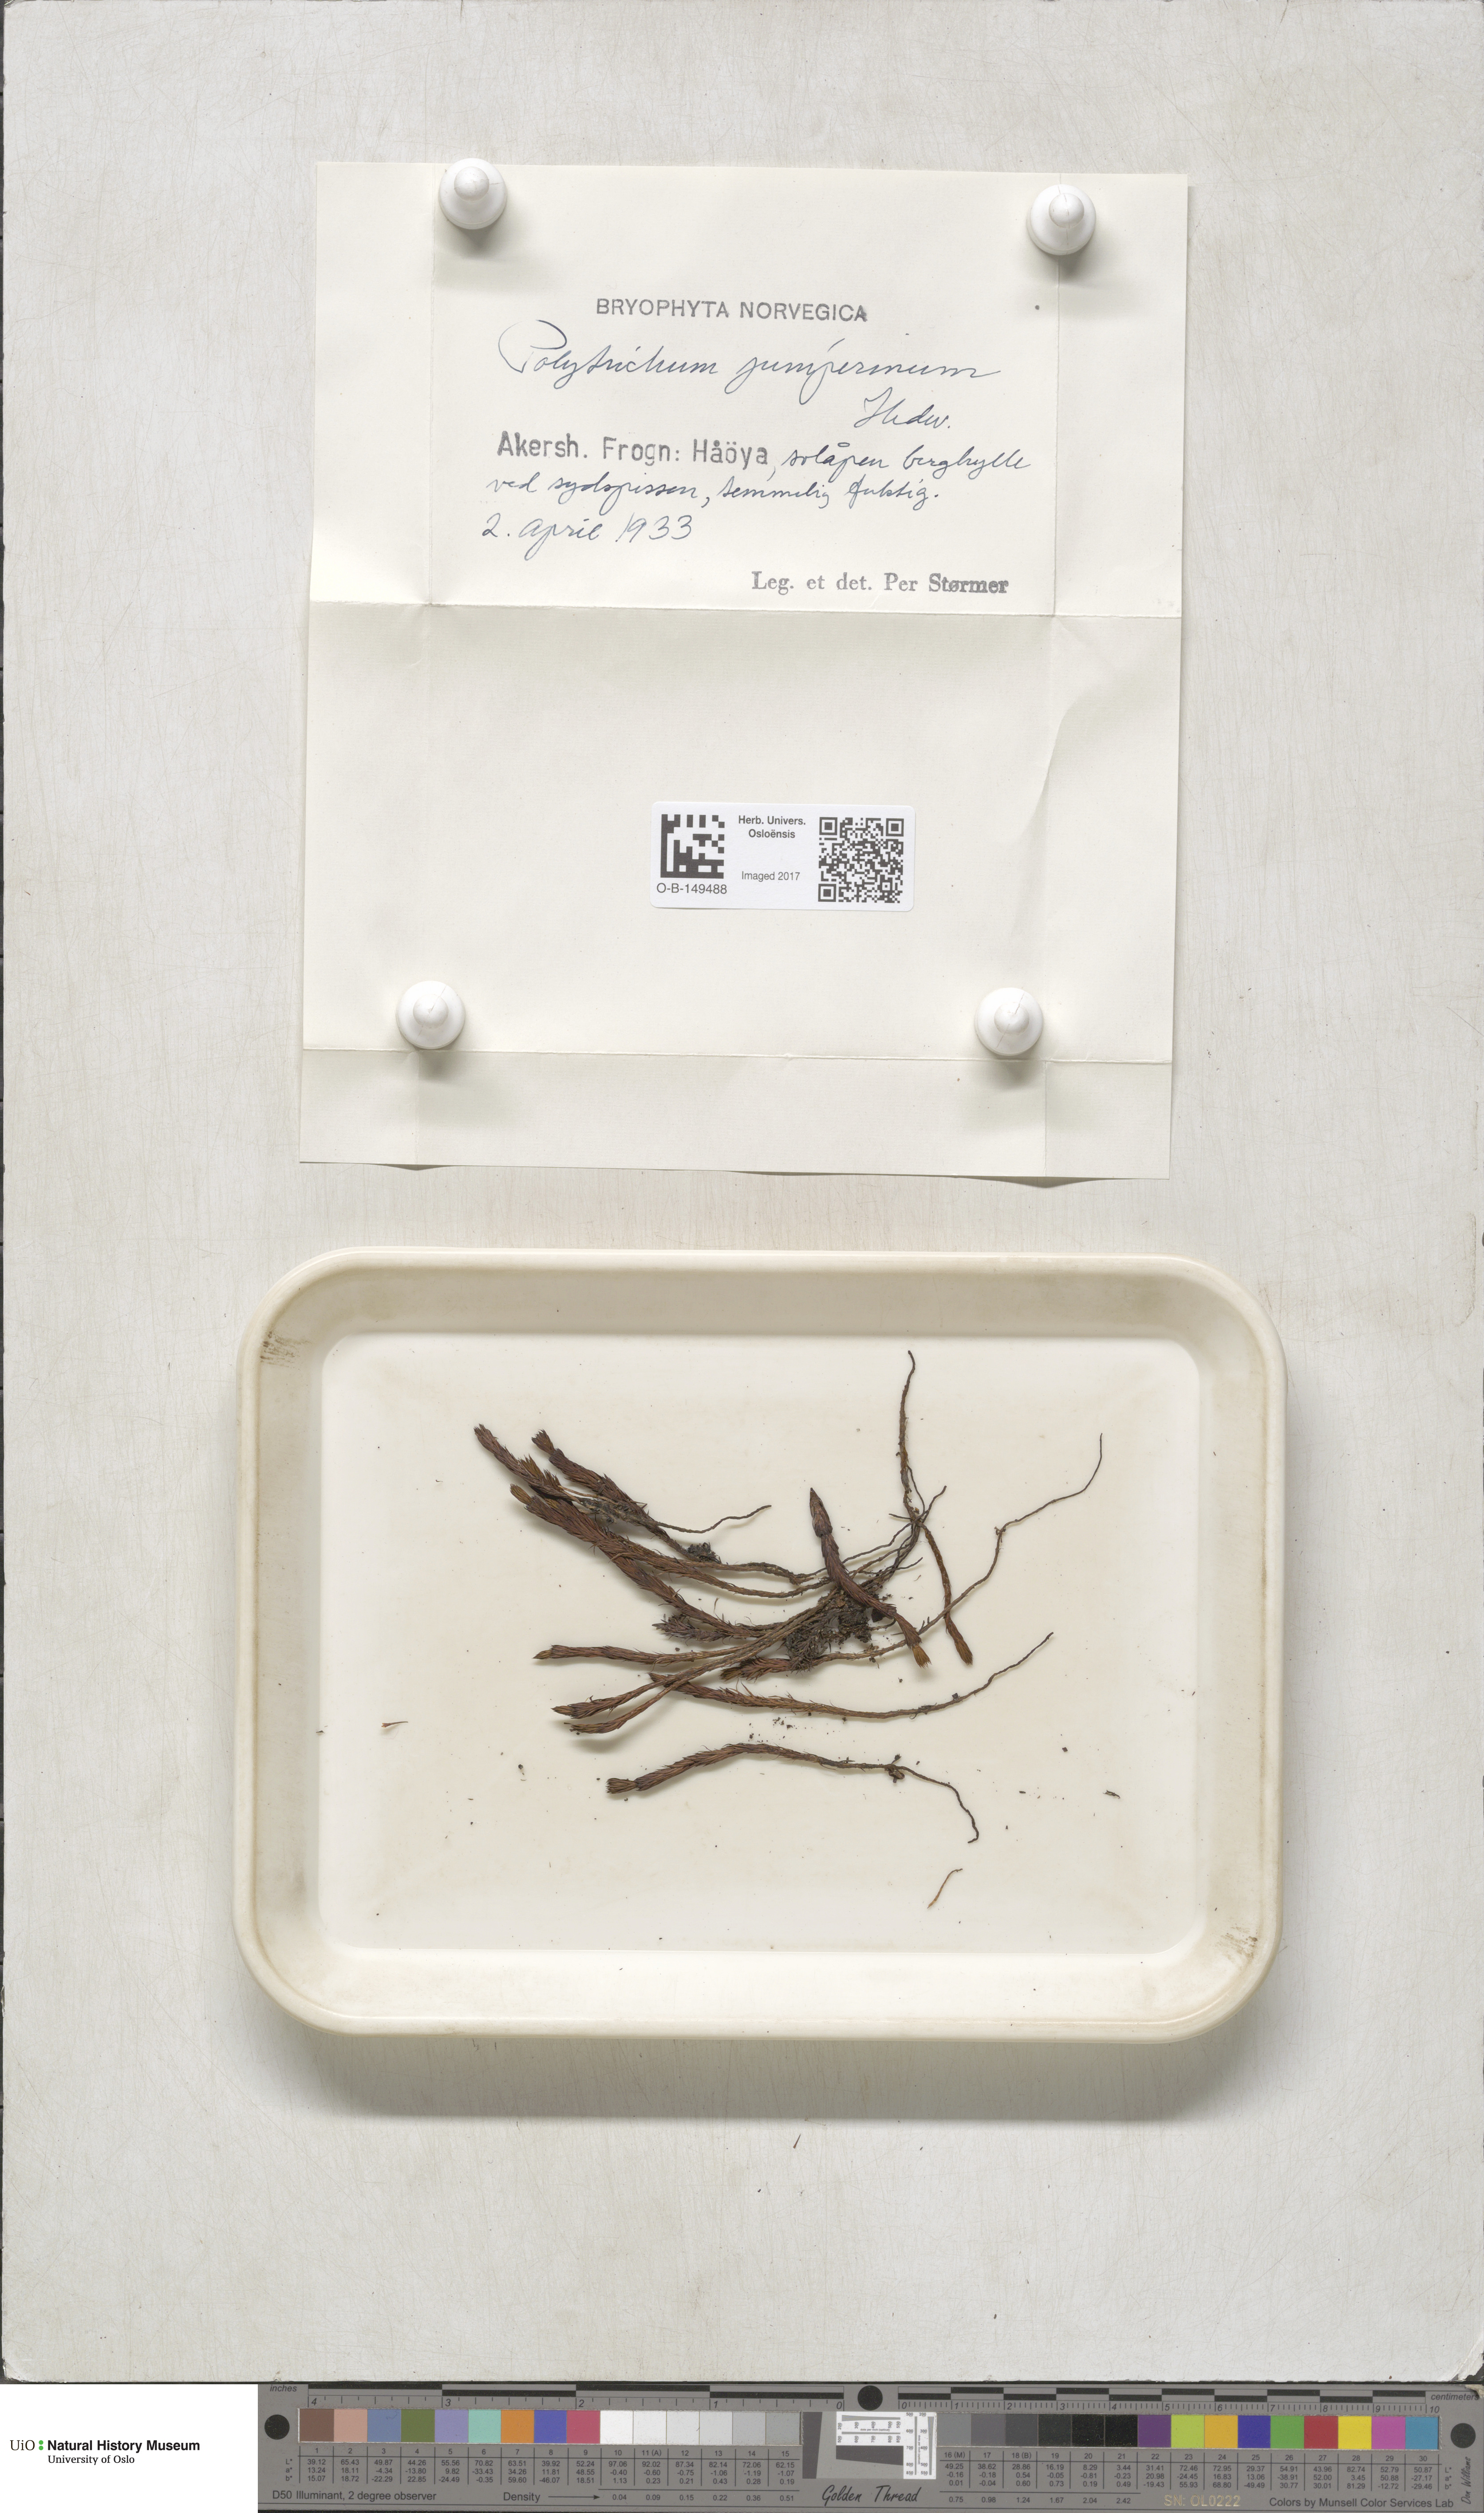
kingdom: Plantae
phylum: Bryophyta
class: Polytrichopsida
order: Polytrichales
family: Polytrichaceae
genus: Polytrichum
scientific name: Polytrichum juniperinum
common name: Juniper haircap moss
